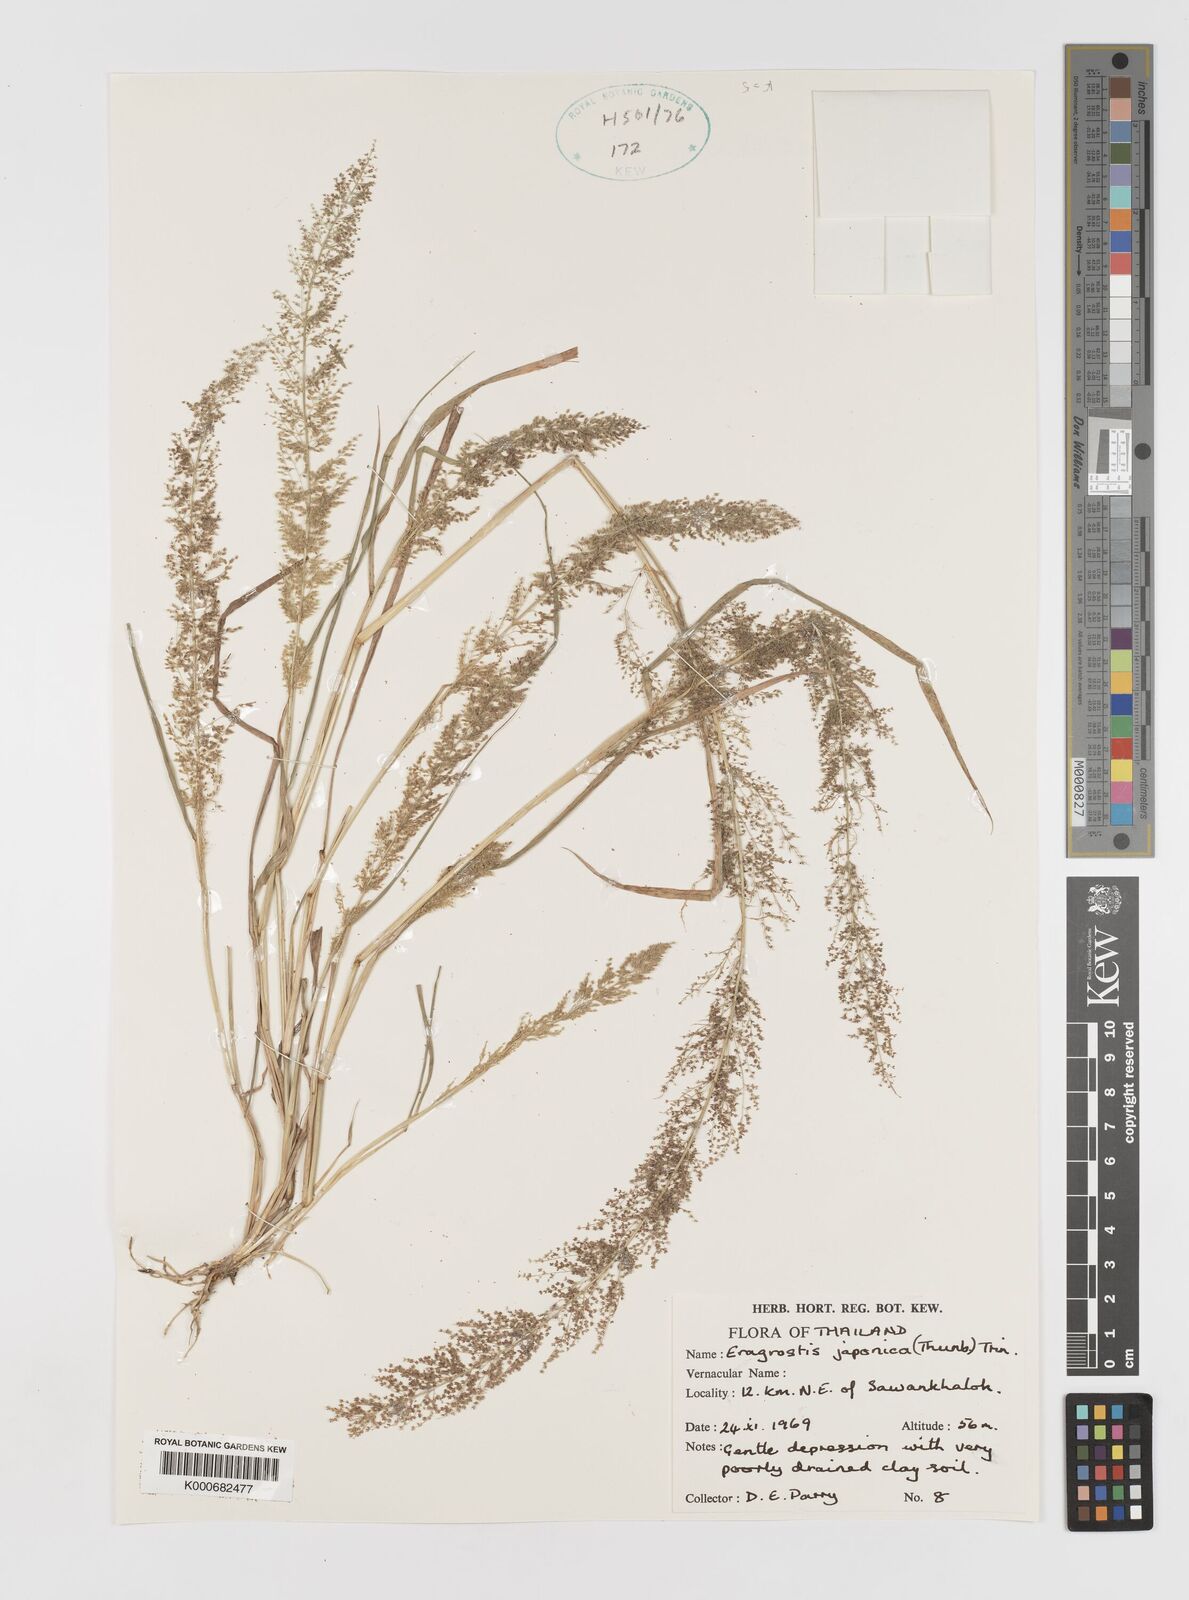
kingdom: Plantae
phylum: Tracheophyta
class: Liliopsida
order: Poales
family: Poaceae
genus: Eragrostis
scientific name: Eragrostis japonica
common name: Pond lovegrass
